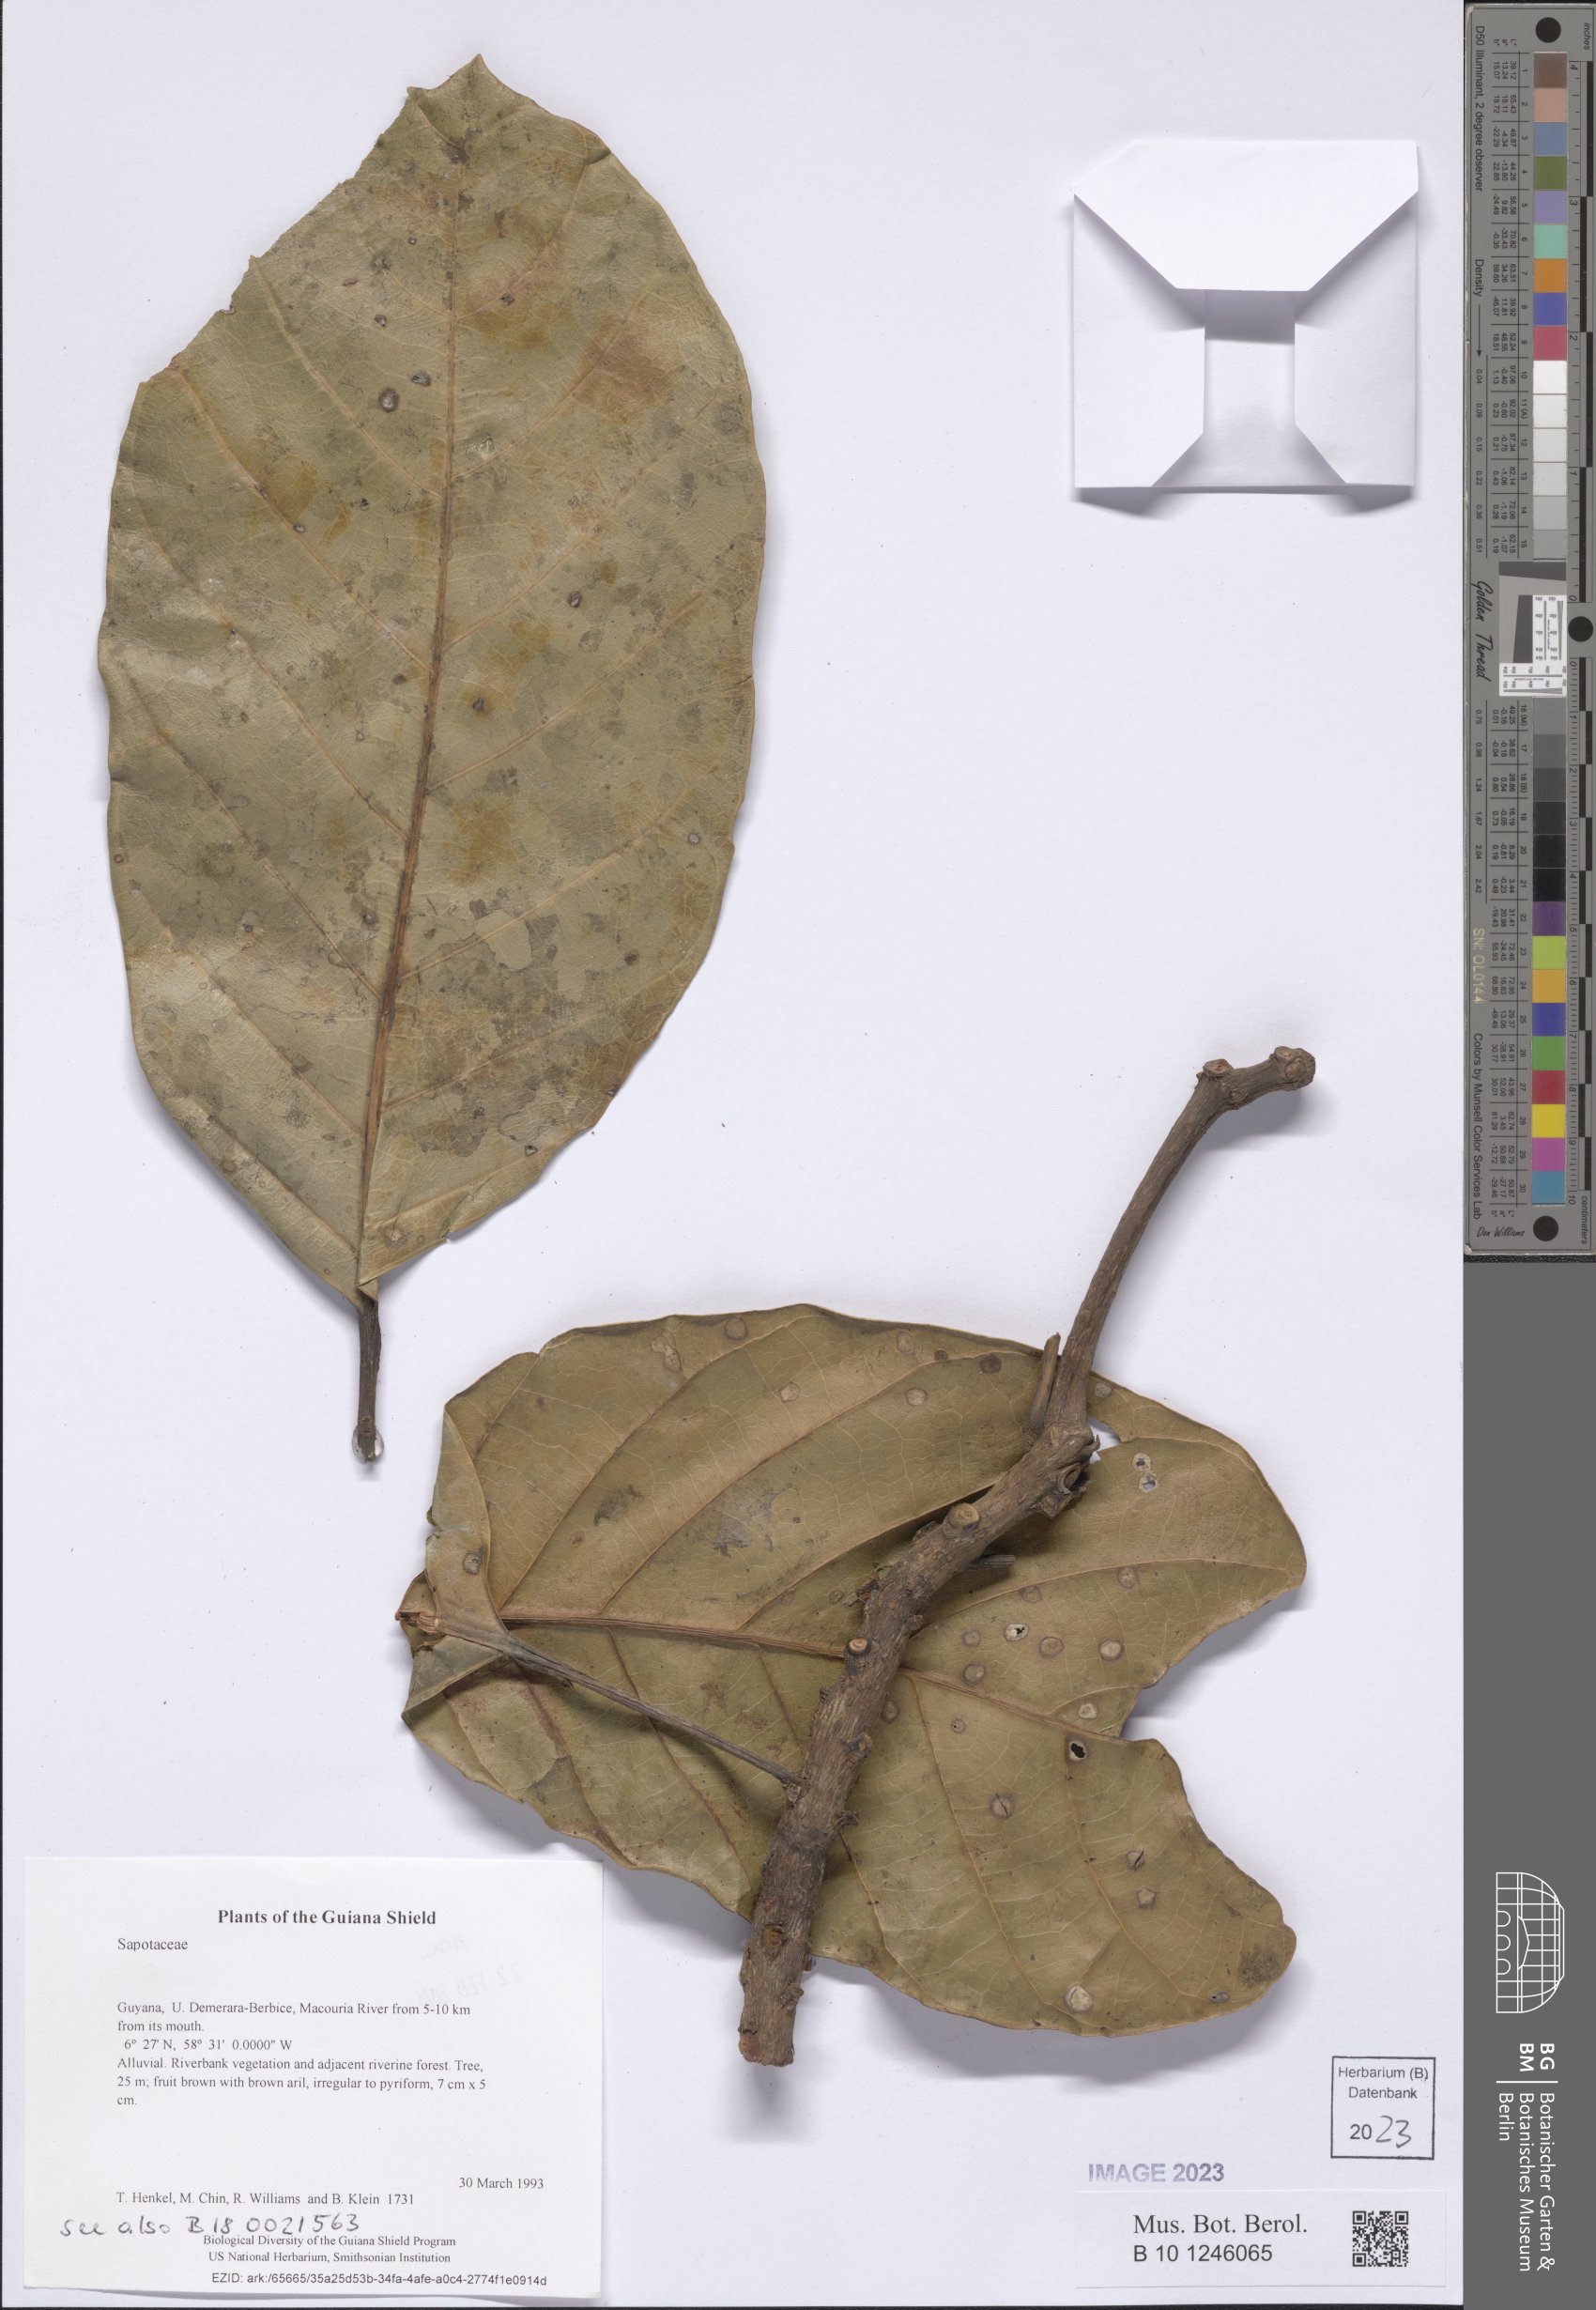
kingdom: Plantae
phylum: Tracheophyta
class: Magnoliopsida
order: Ericales
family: Sapotaceae
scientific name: Sapotaceae
